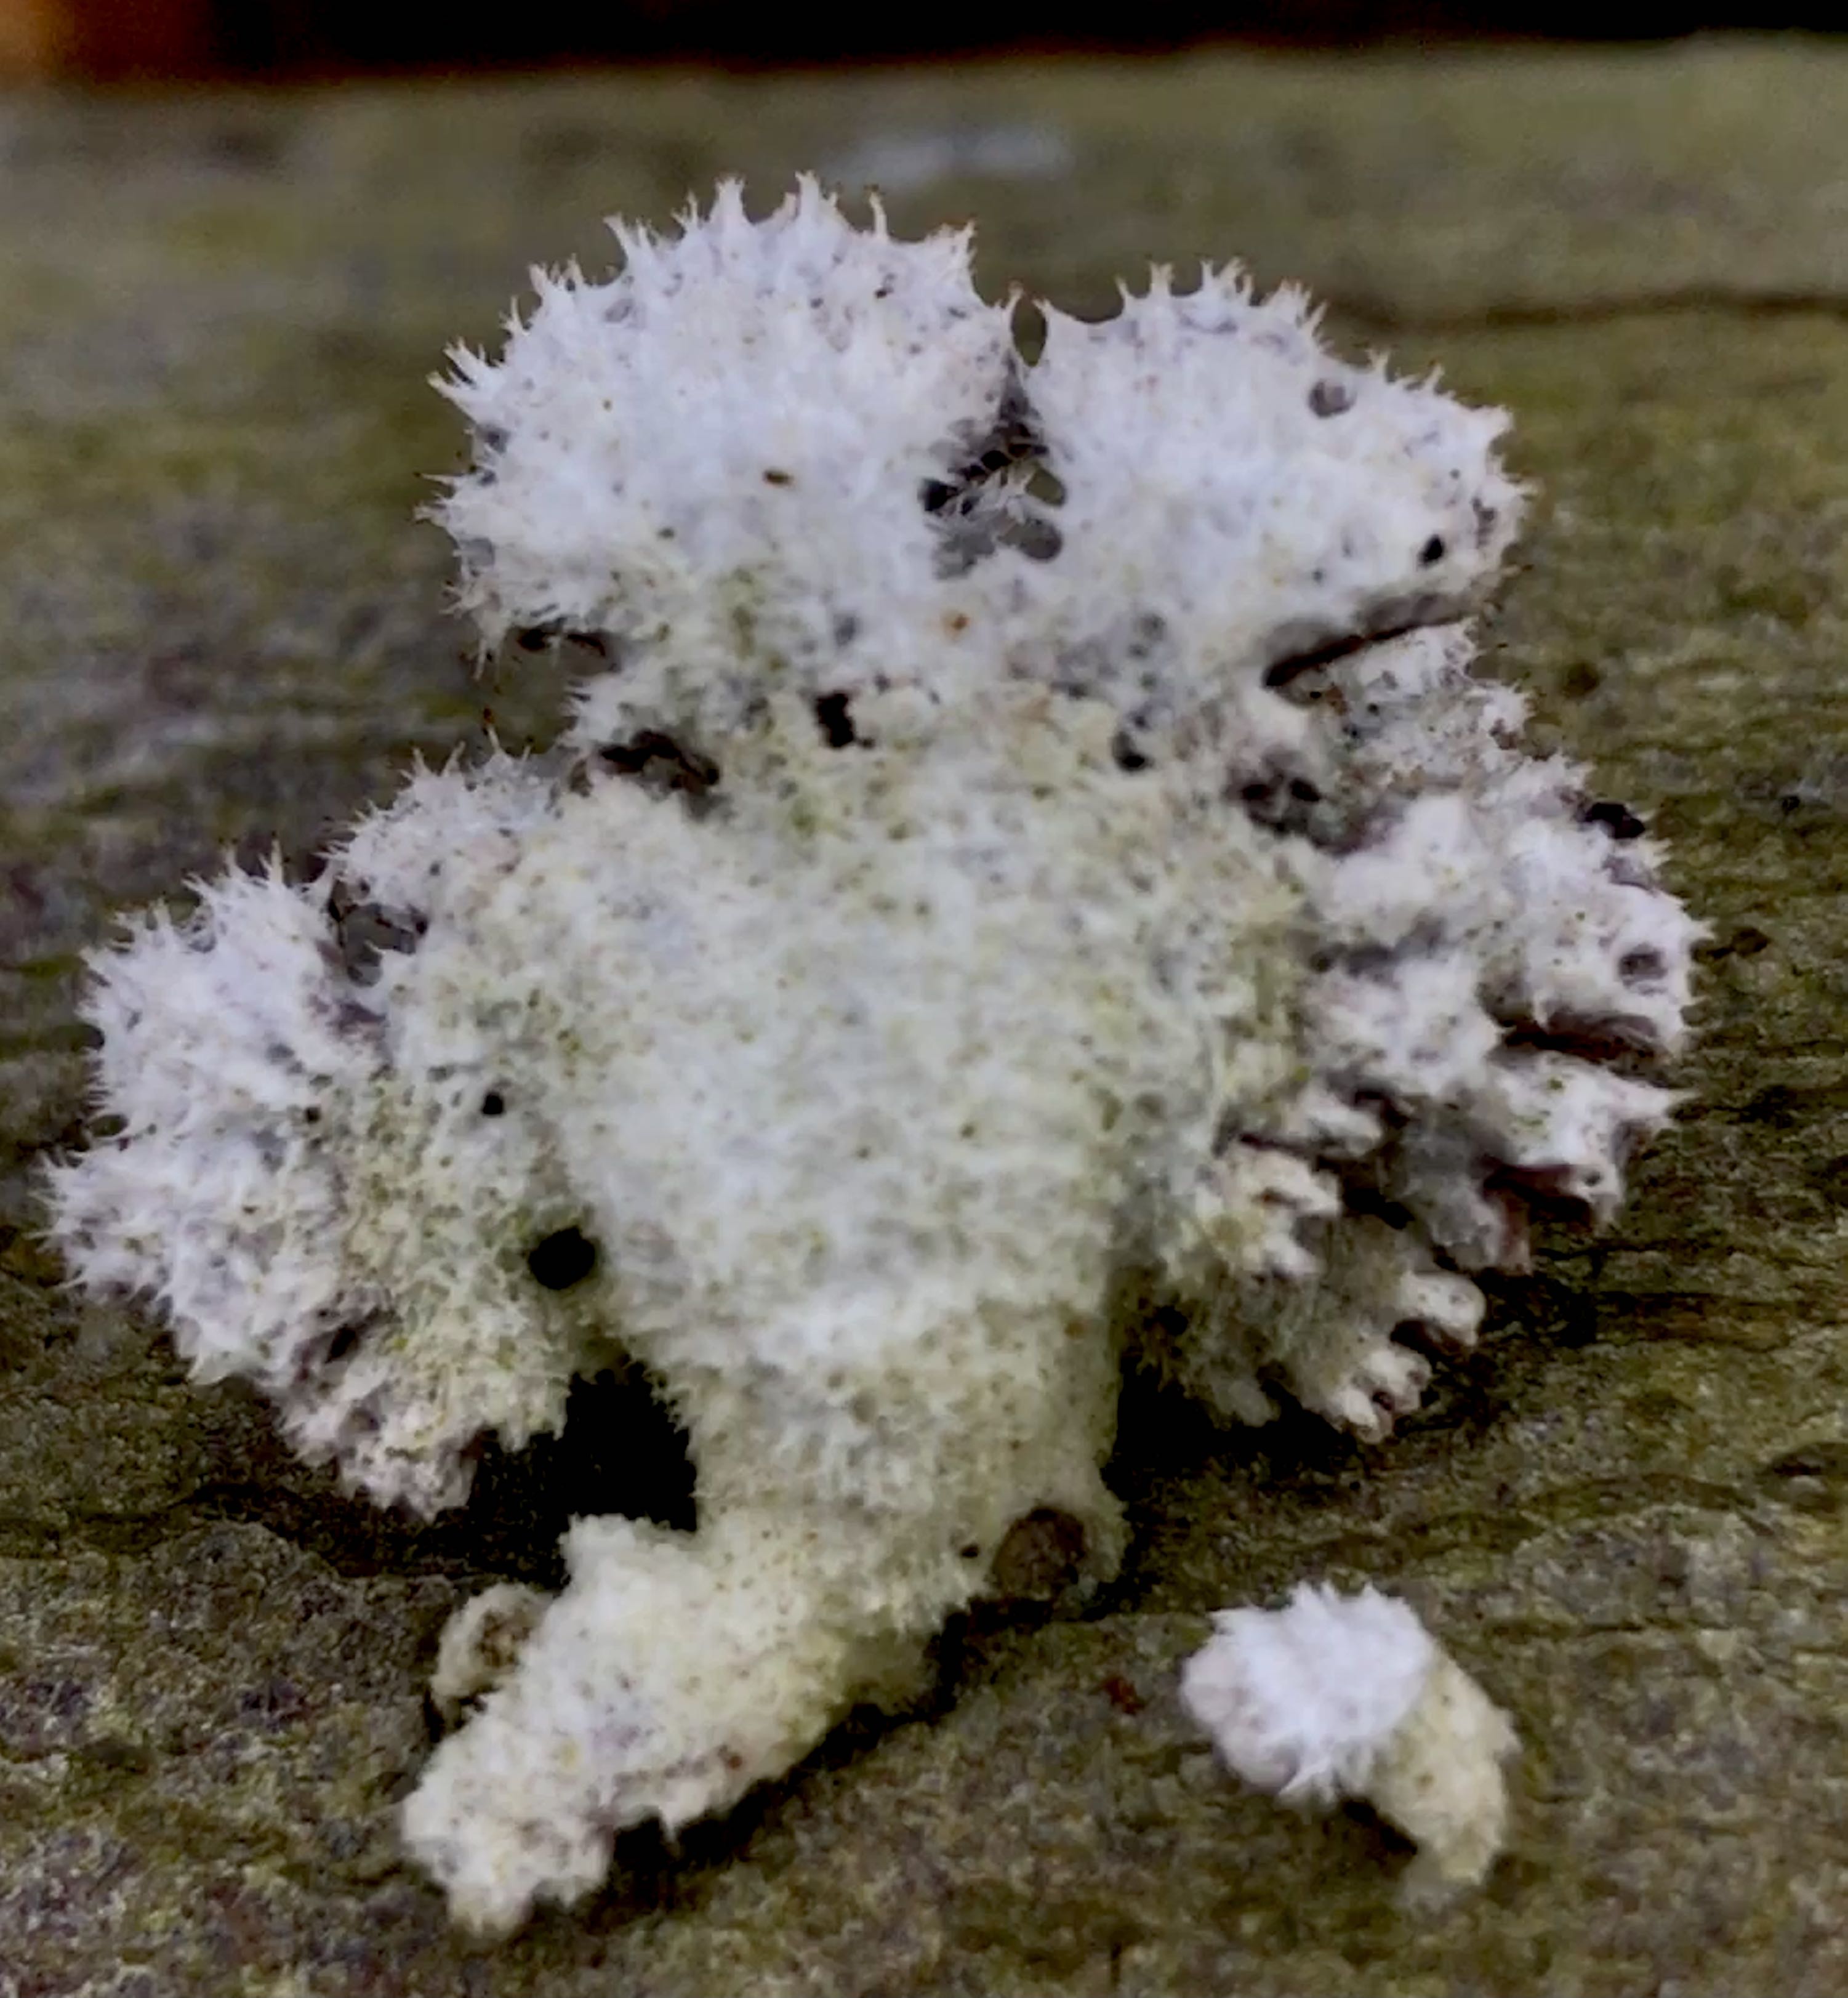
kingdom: Fungi
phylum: Basidiomycota
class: Agaricomycetes
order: Agaricales
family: Schizophyllaceae
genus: Schizophyllum
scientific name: Schizophyllum commune
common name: kløvblad
